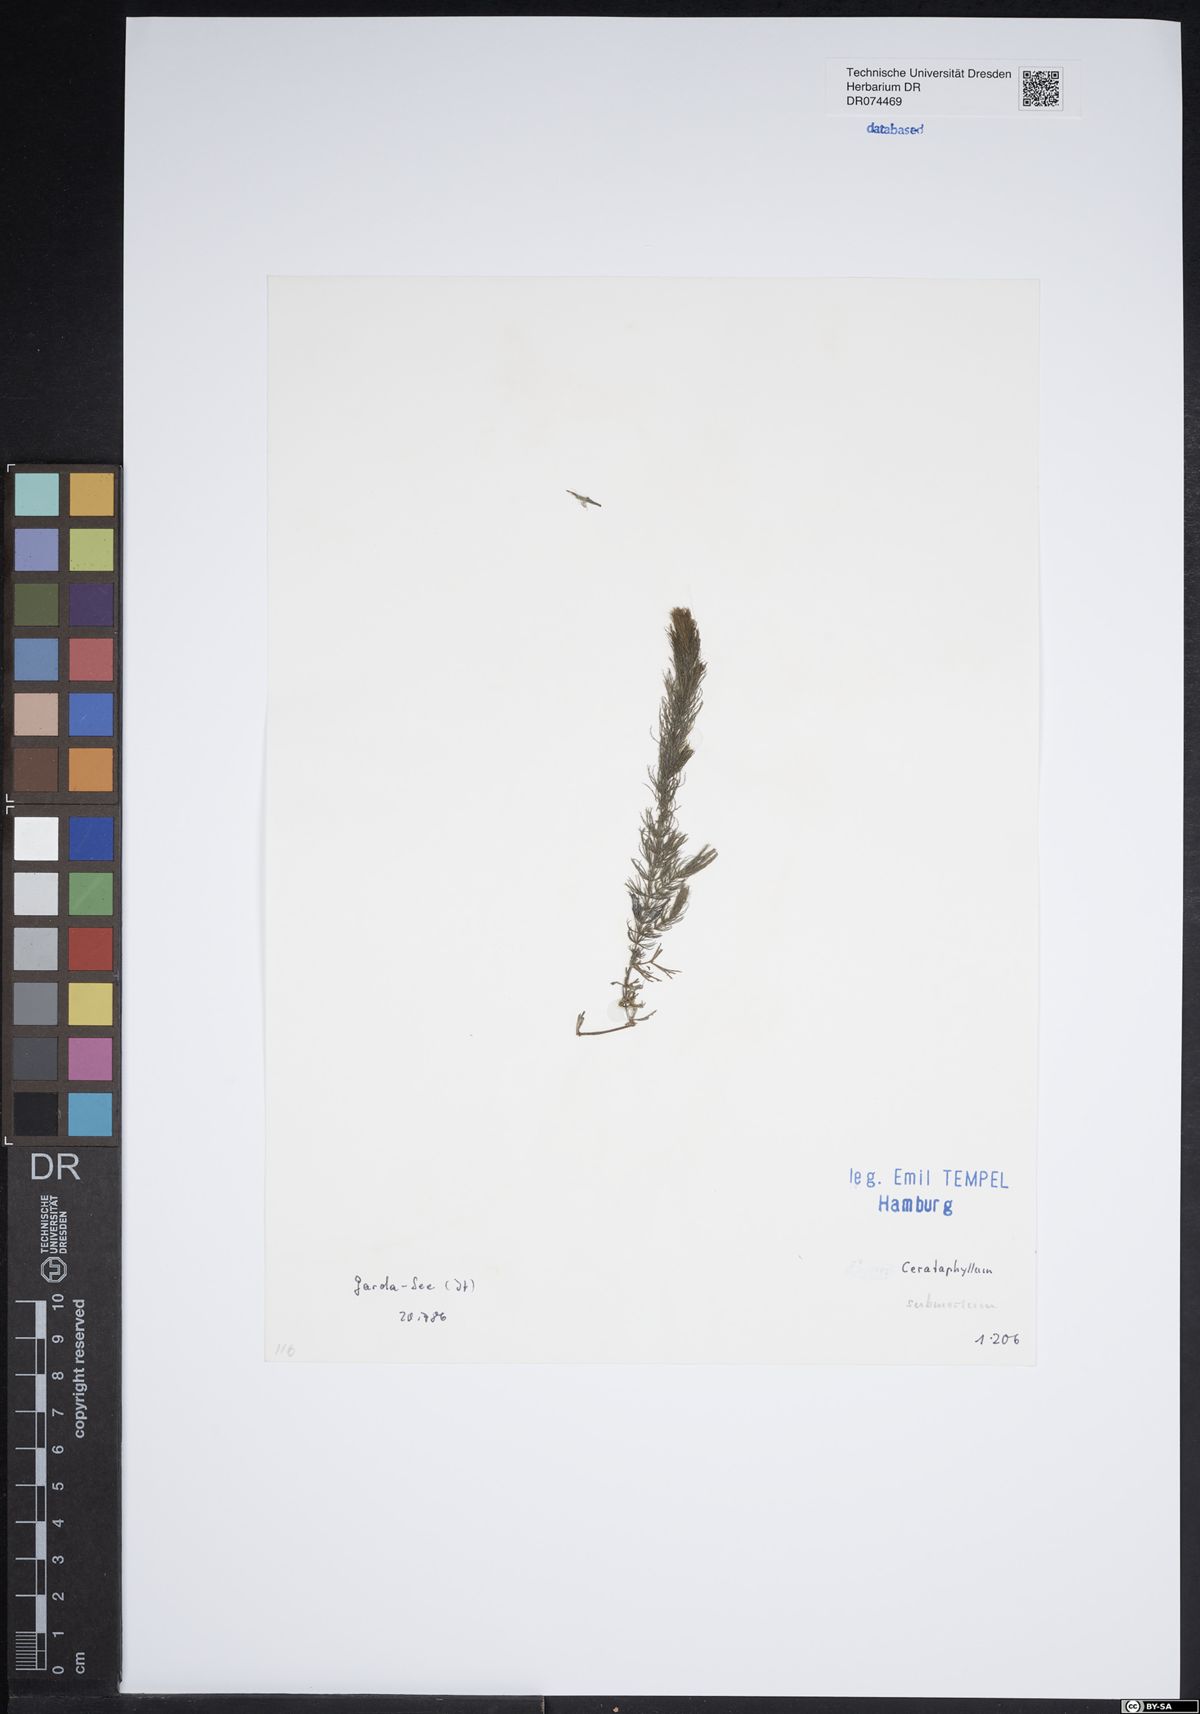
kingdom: Plantae
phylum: Tracheophyta
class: Magnoliopsida
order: Ceratophyllales
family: Ceratophyllaceae
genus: Ceratophyllum
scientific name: Ceratophyllum submersum
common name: Soft hornwort
